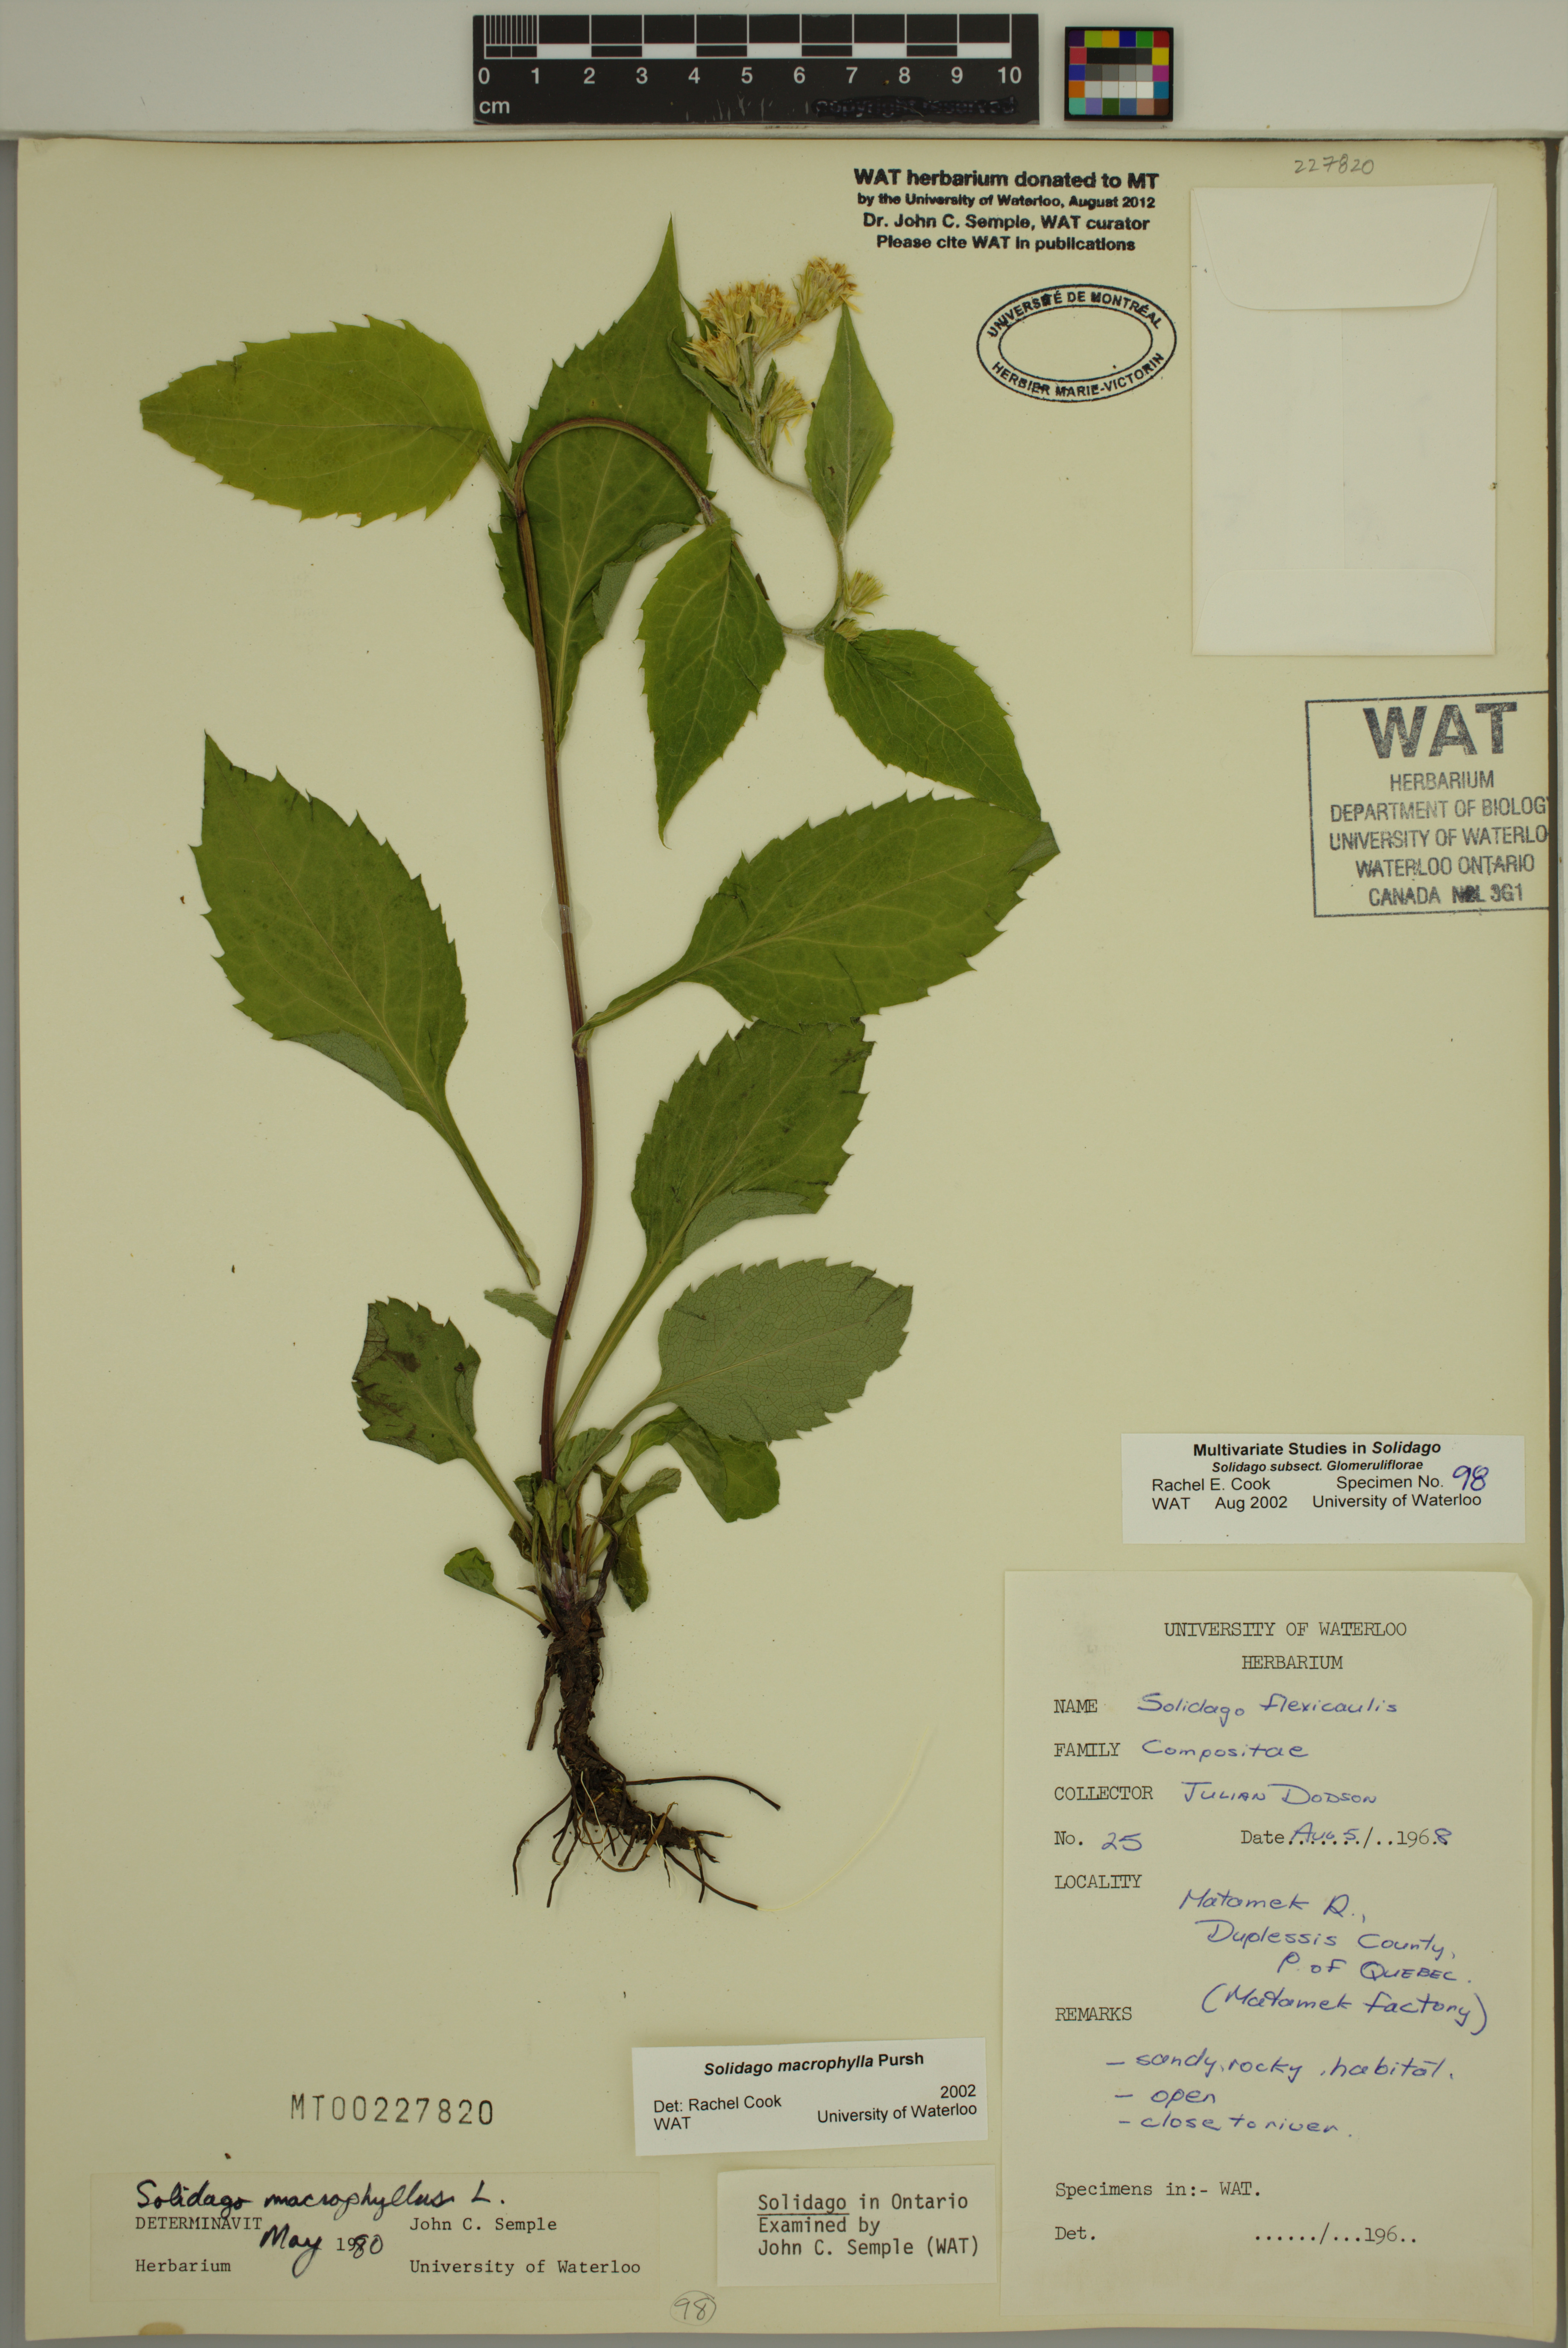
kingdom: Plantae
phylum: Tracheophyta
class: Magnoliopsida
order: Asterales
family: Asteraceae
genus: Solidago
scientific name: Solidago macrophylla
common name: Large-leaved goldenrod
